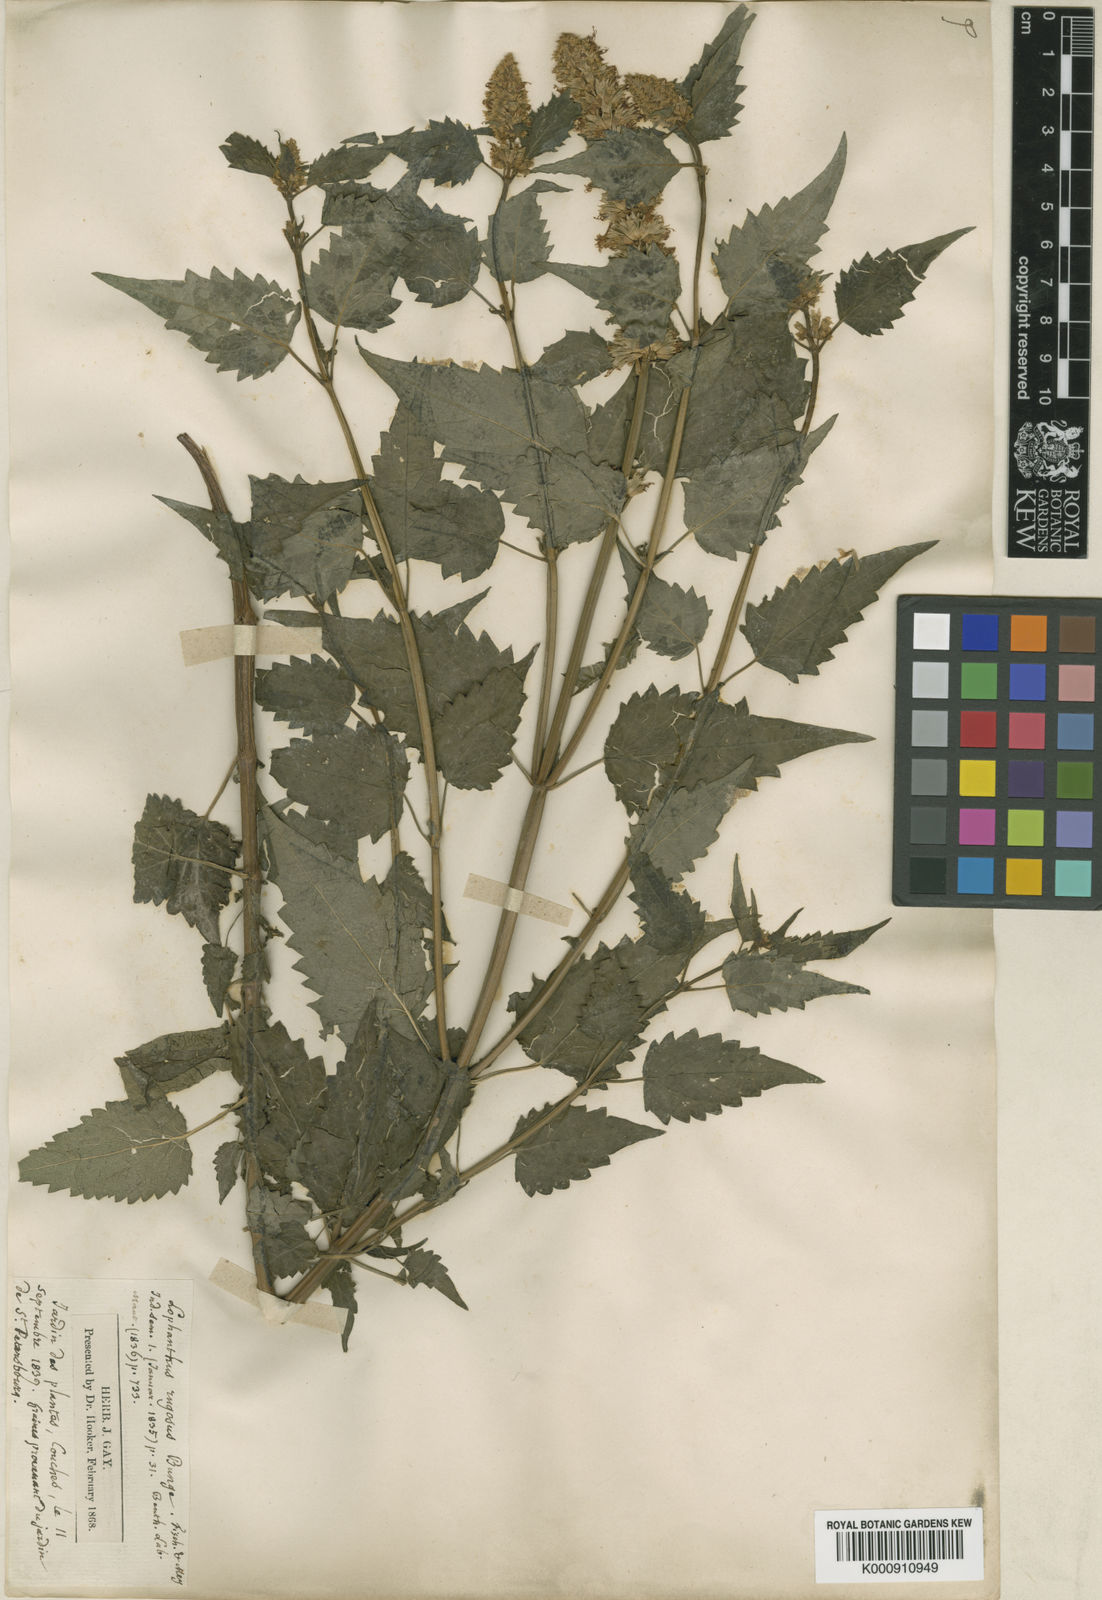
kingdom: Plantae
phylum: Tracheophyta
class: Magnoliopsida
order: Lamiales
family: Lamiaceae
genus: Agastache
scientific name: Agastache rugosa
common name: Mint
